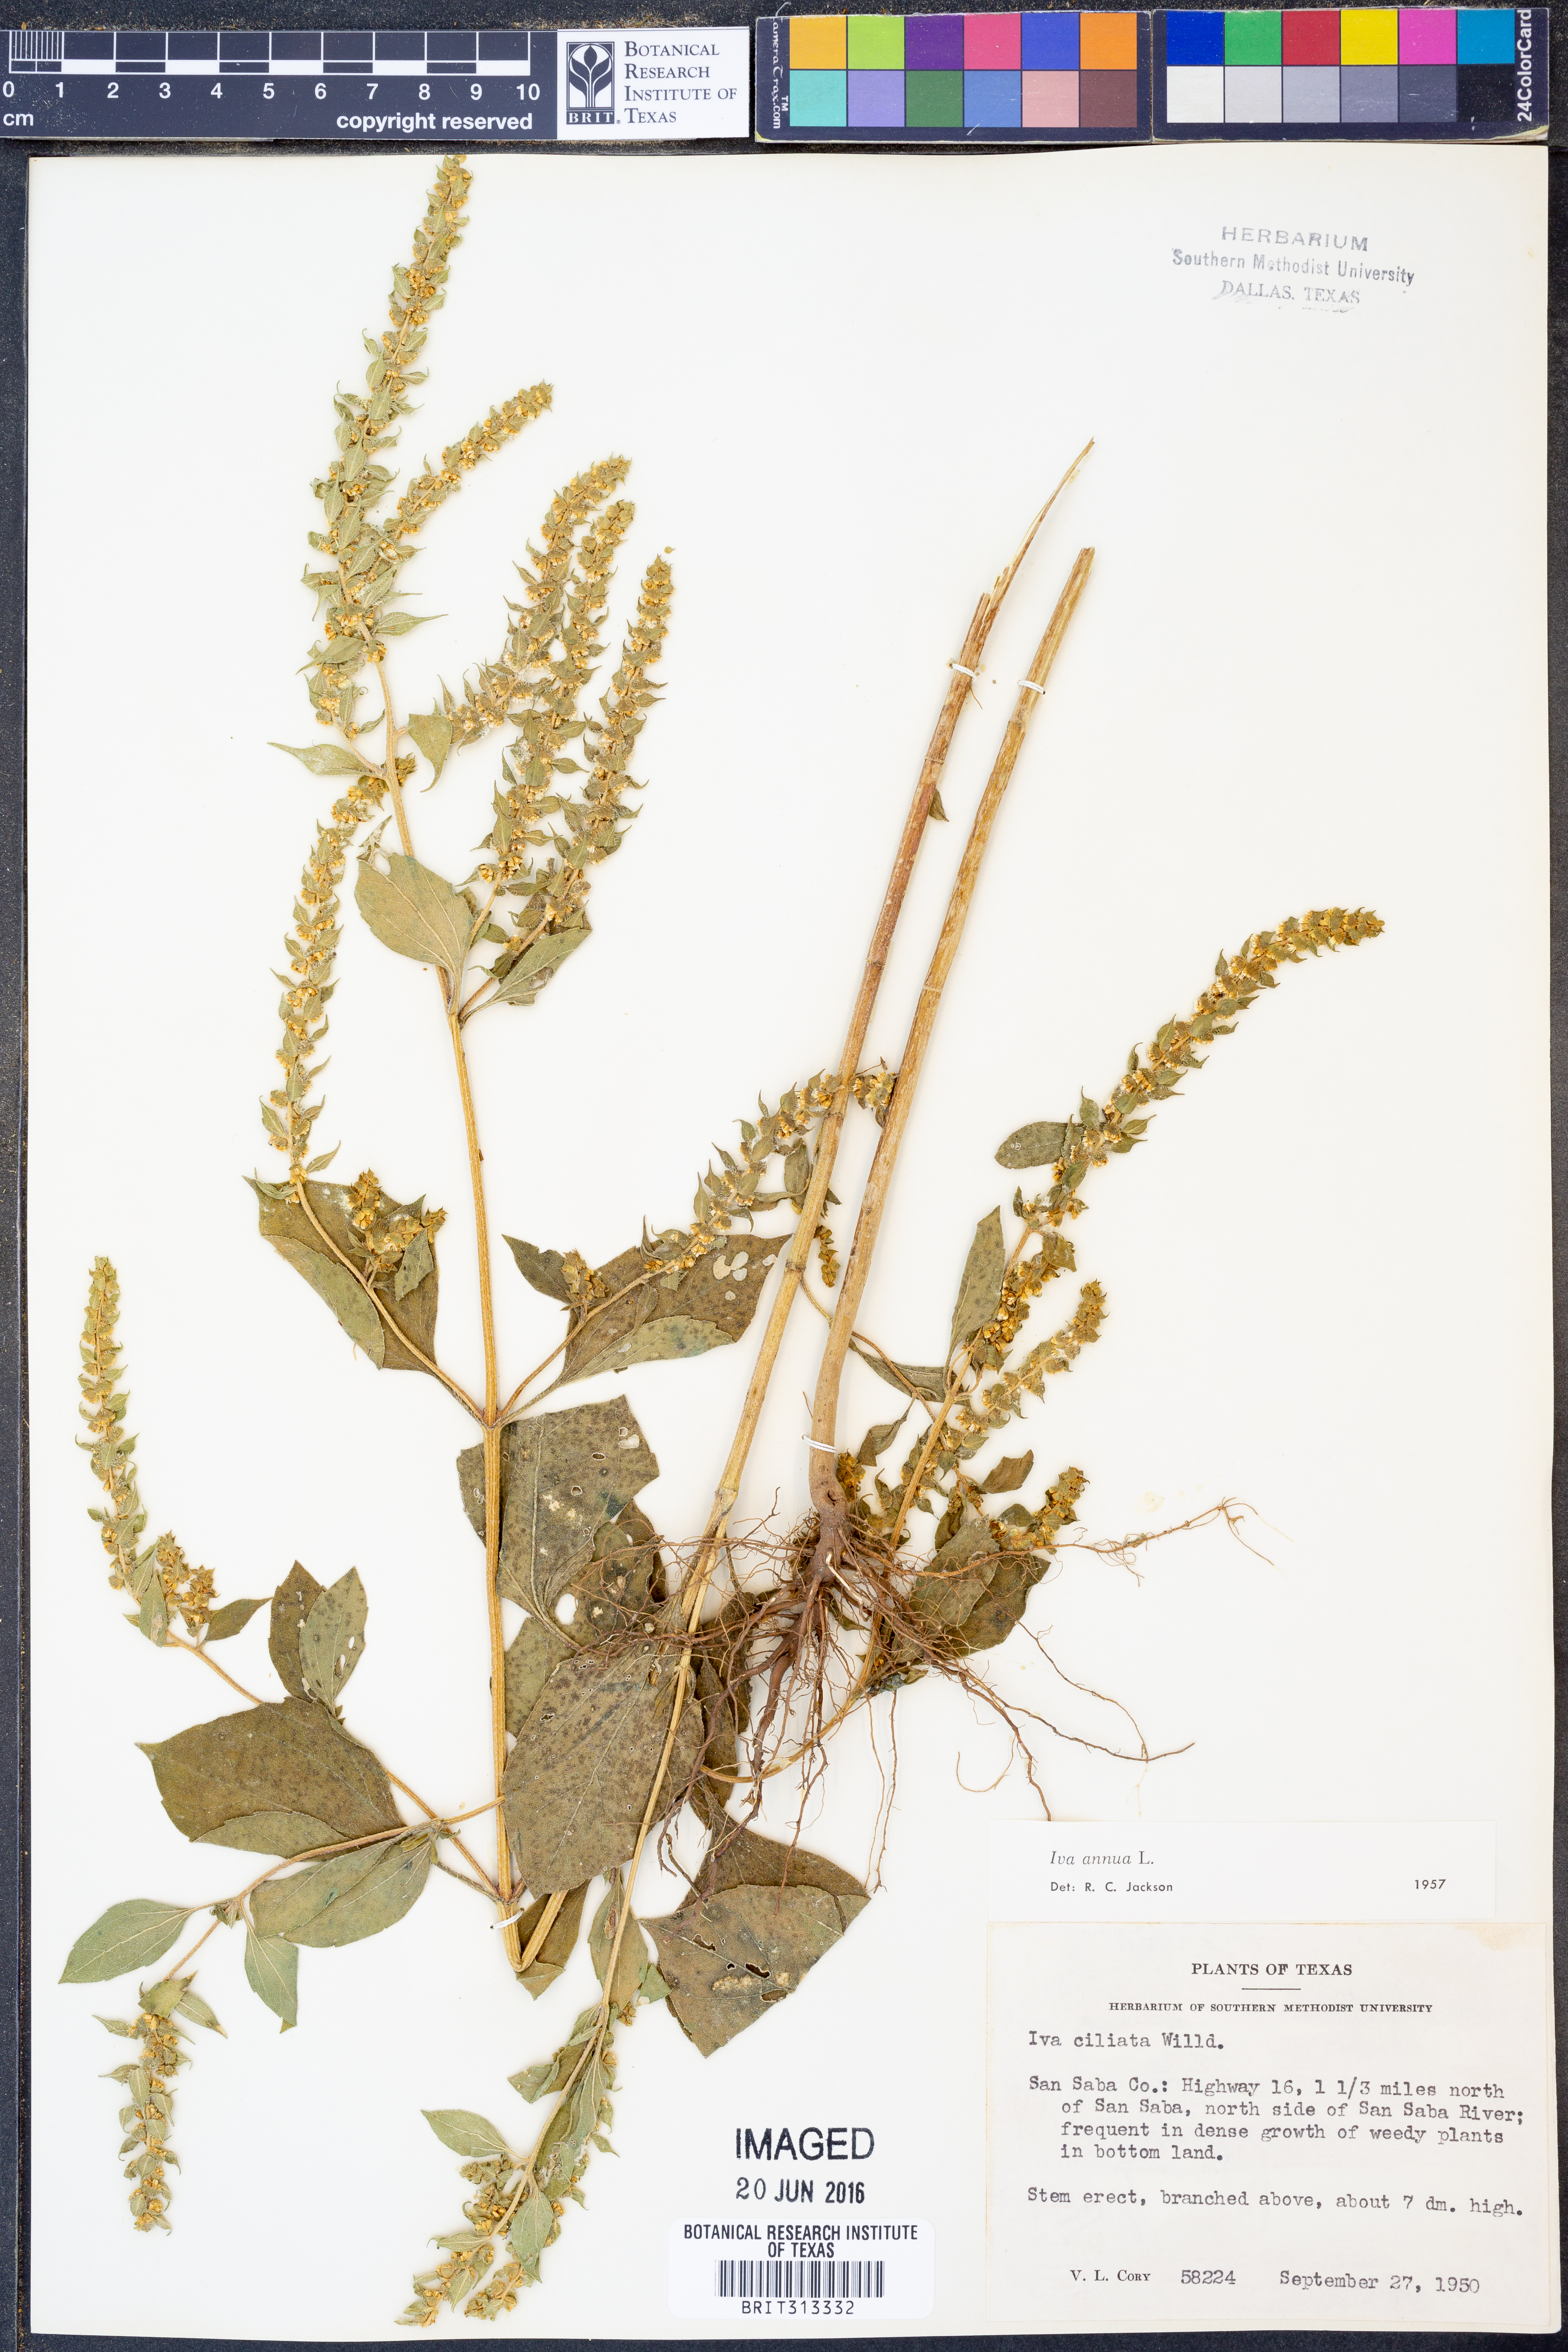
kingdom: Plantae
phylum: Tracheophyta
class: Magnoliopsida
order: Asterales
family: Asteraceae
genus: Iva
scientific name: Iva annua
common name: Marsh-elder
